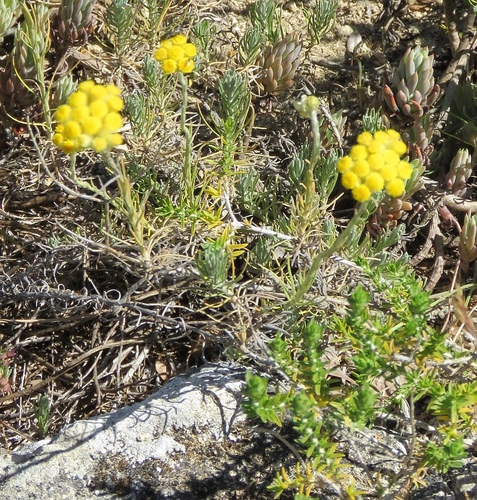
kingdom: Plantae
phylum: Tracheophyta
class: Magnoliopsida
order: Asterales
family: Asteraceae
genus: Helichrysum
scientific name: Helichrysum stoechas
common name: Goldilocks
